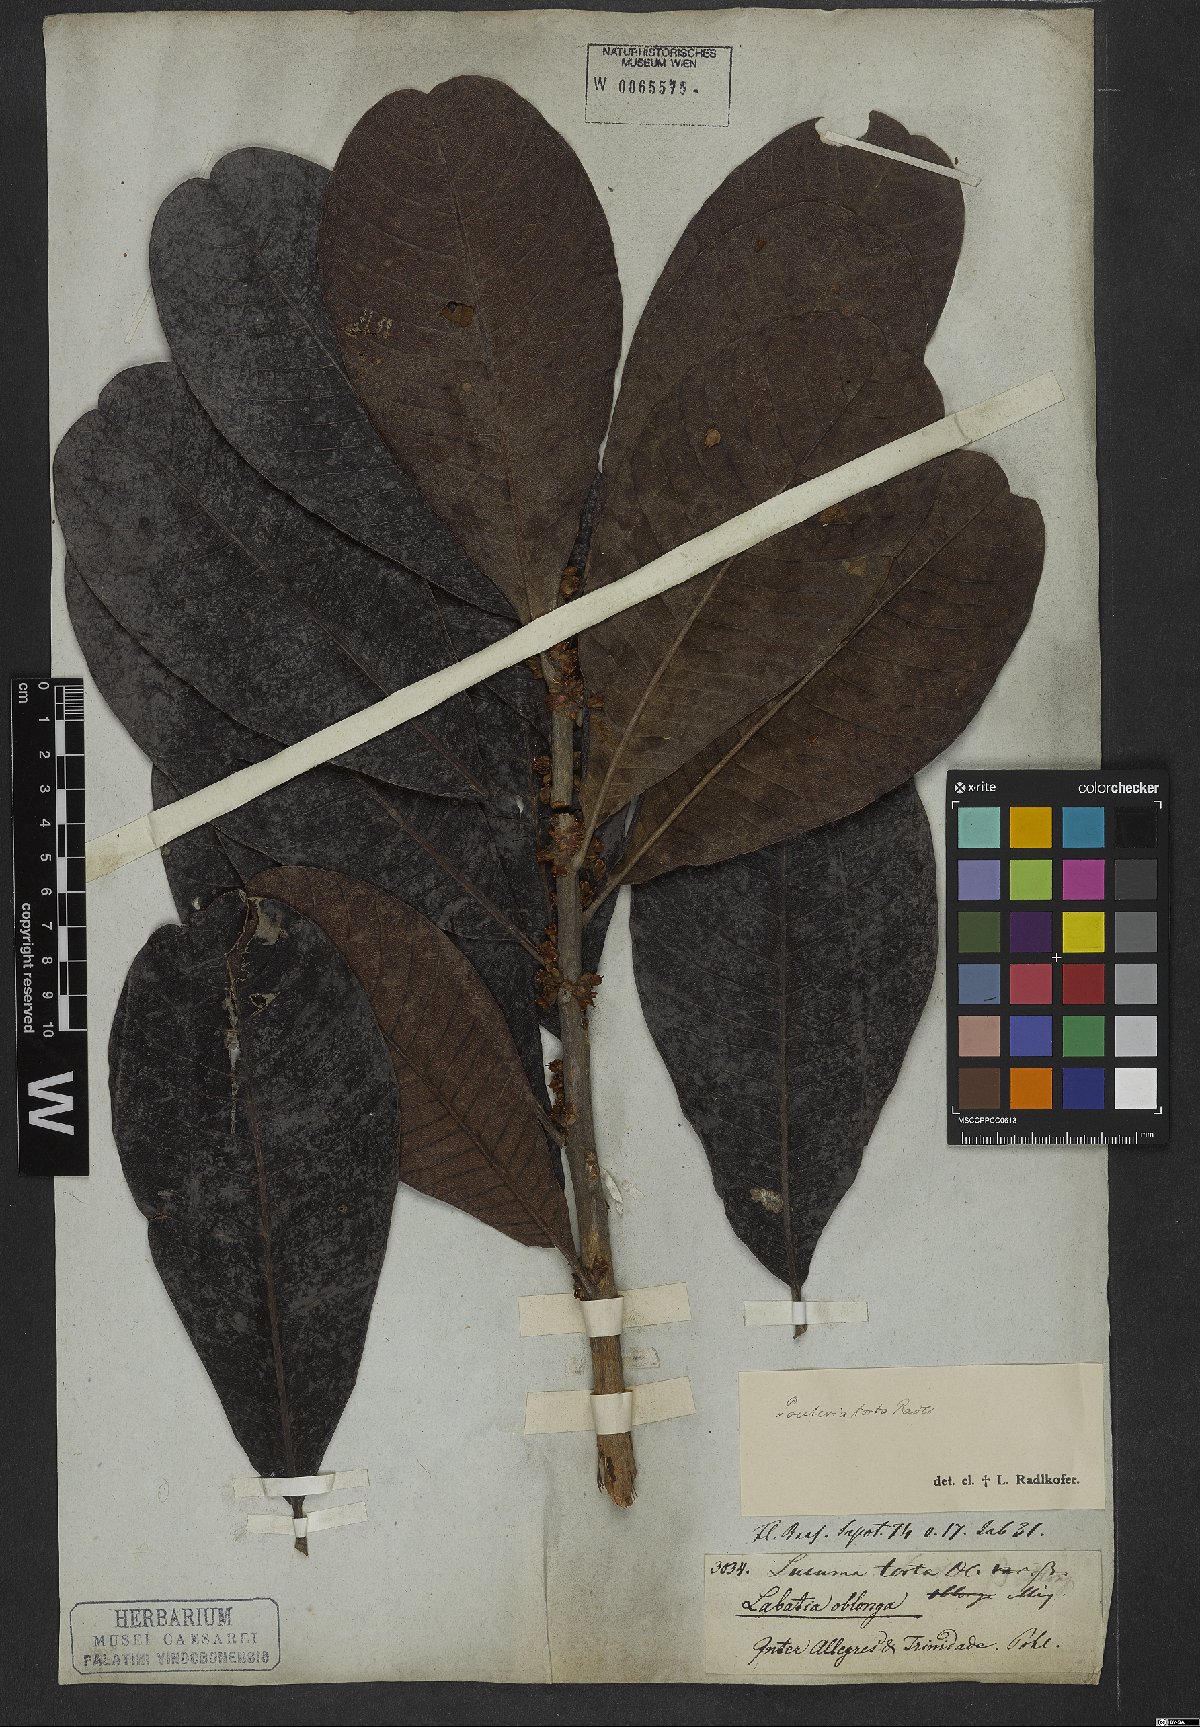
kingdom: Plantae
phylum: Tracheophyta
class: Magnoliopsida
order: Ericales
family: Sapotaceae
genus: Pouteria
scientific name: Pouteria torta
